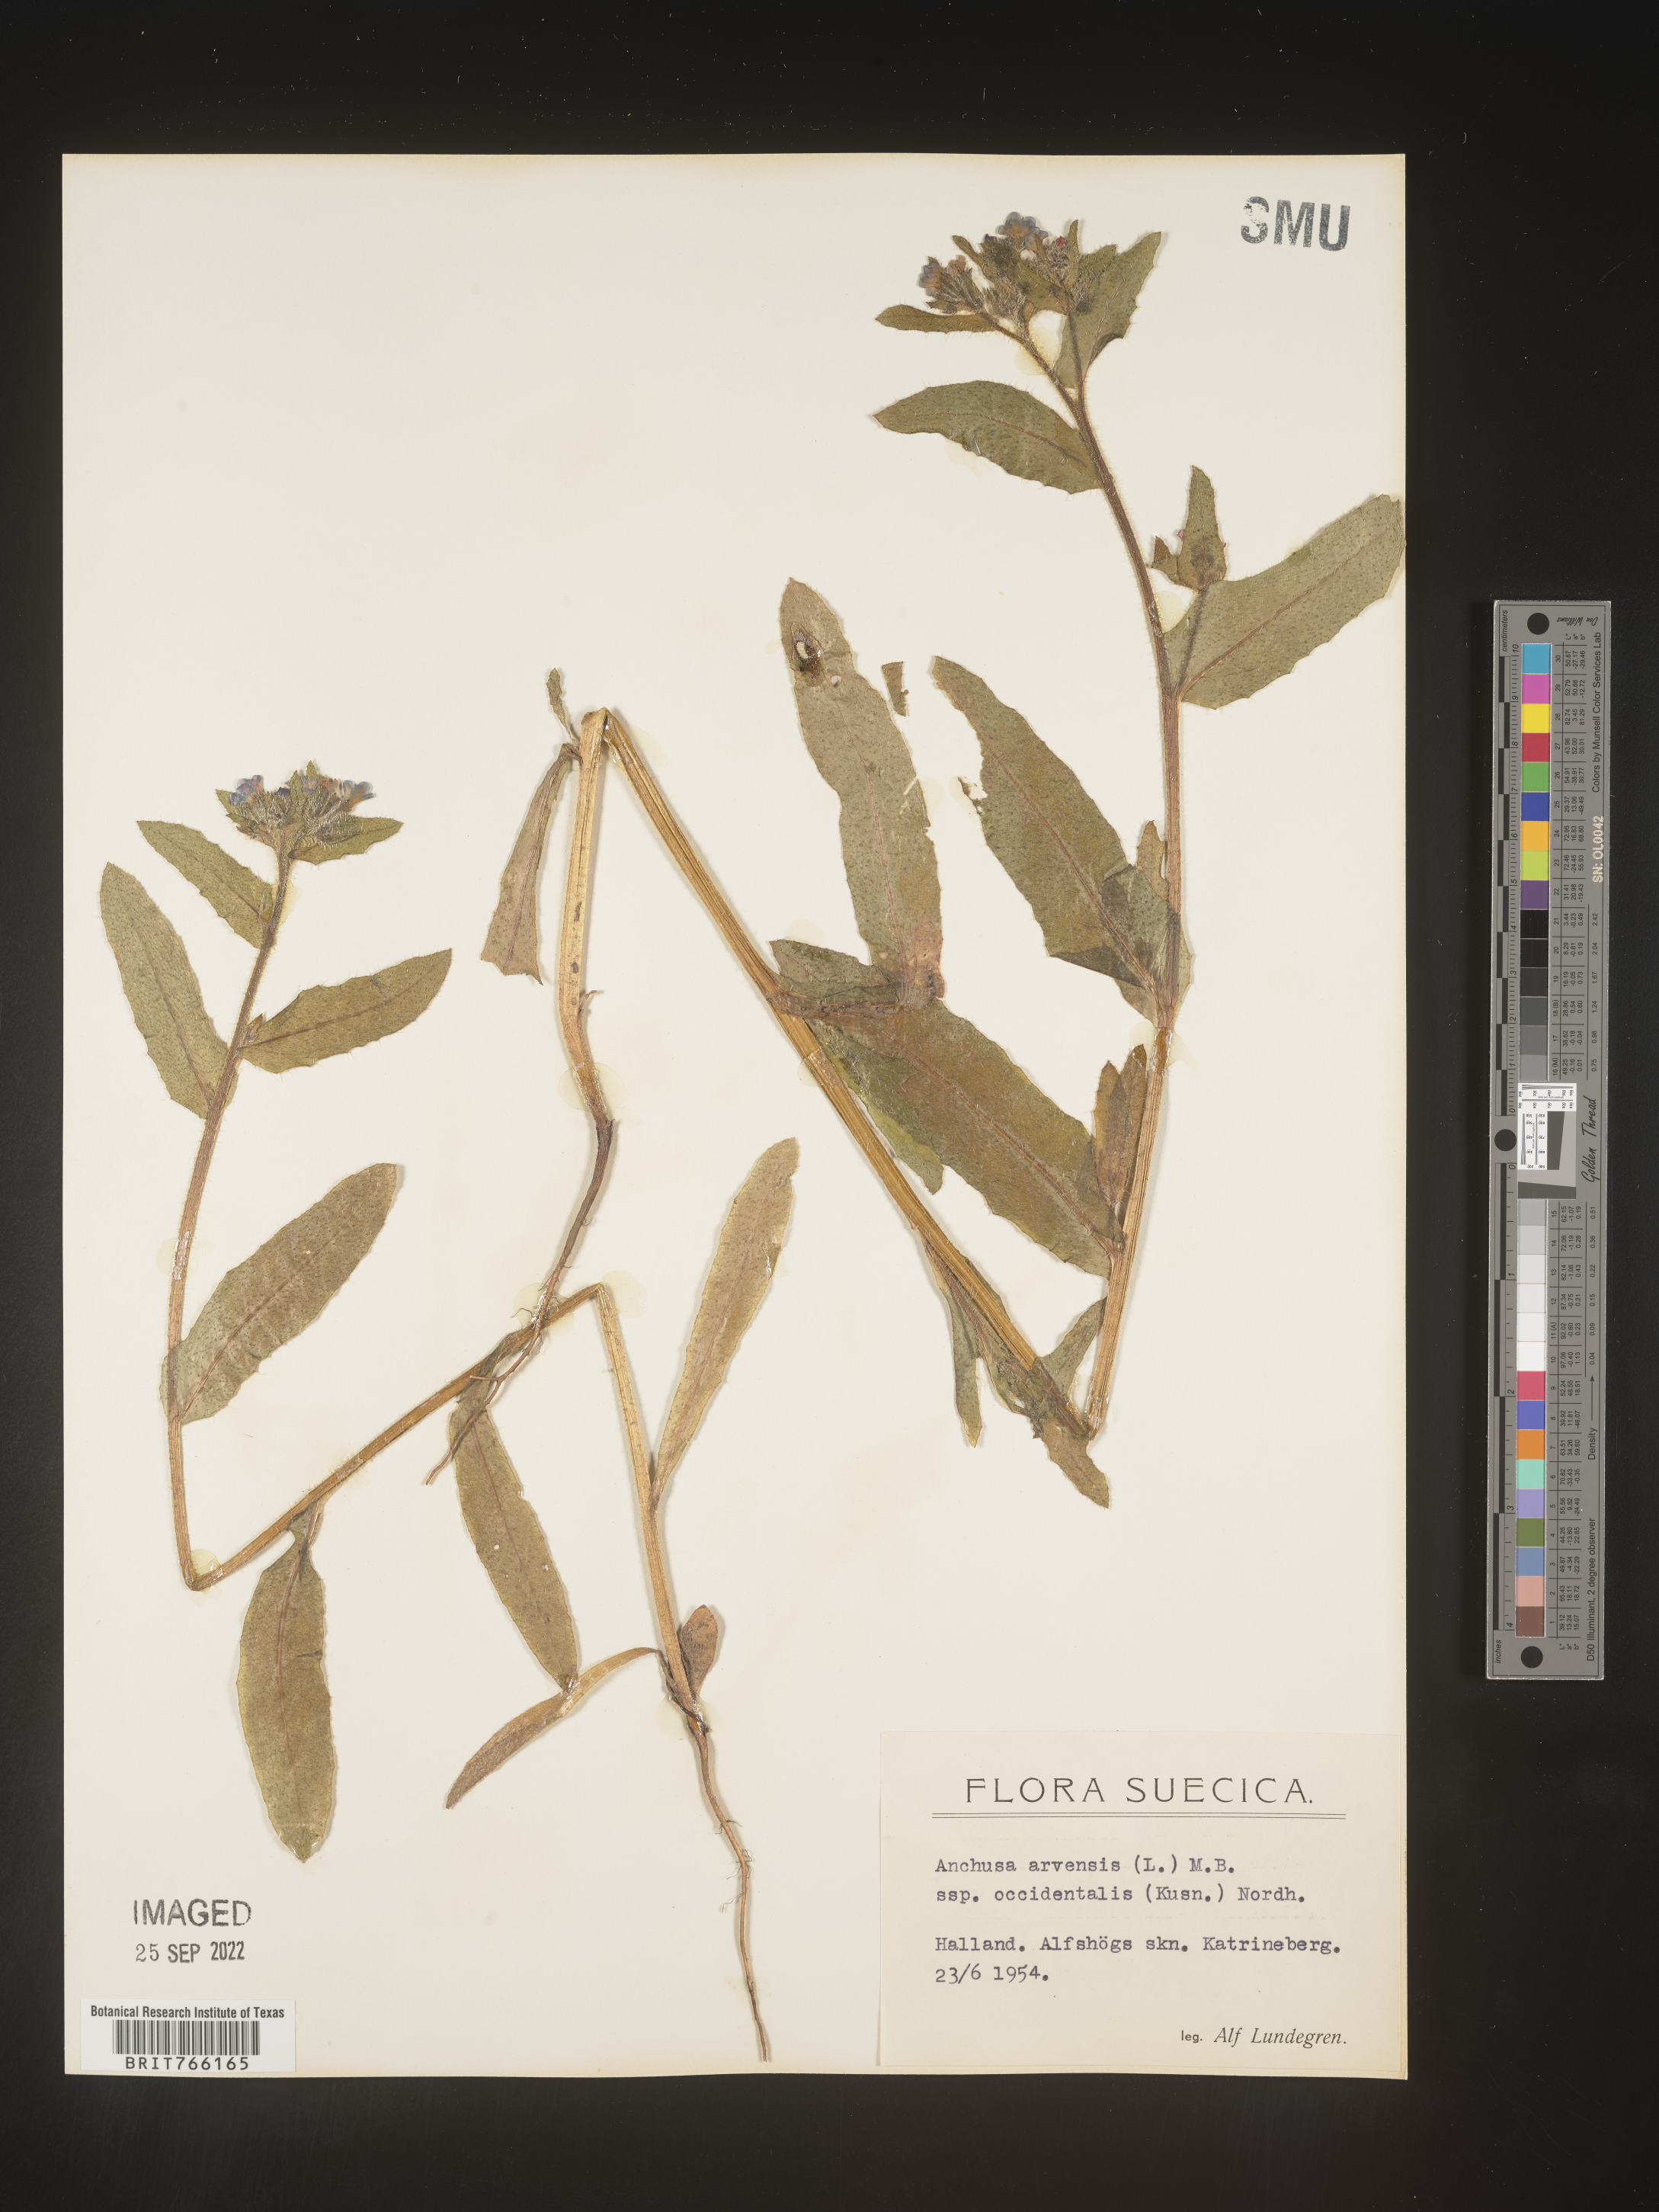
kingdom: Plantae
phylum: Tracheophyta
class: Magnoliopsida
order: Boraginales
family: Boraginaceae
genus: Anchusa
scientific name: Anchusa
